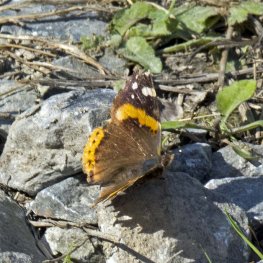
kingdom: Animalia
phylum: Arthropoda
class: Insecta
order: Lepidoptera
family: Nymphalidae
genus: Vanessa
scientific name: Vanessa atalanta
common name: Red Admiral
